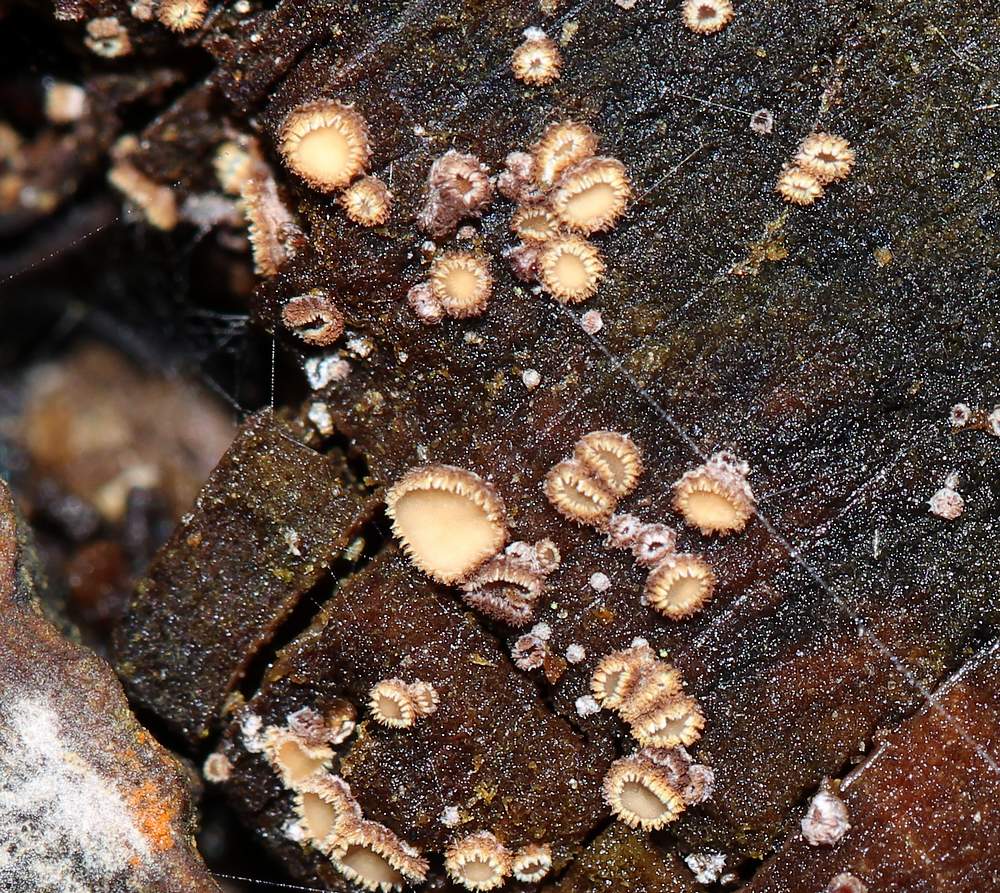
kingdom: Fungi
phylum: Ascomycota
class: Leotiomycetes
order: Helotiales
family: Lachnaceae
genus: Trichopeziza
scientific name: Trichopeziza subsulphurea
